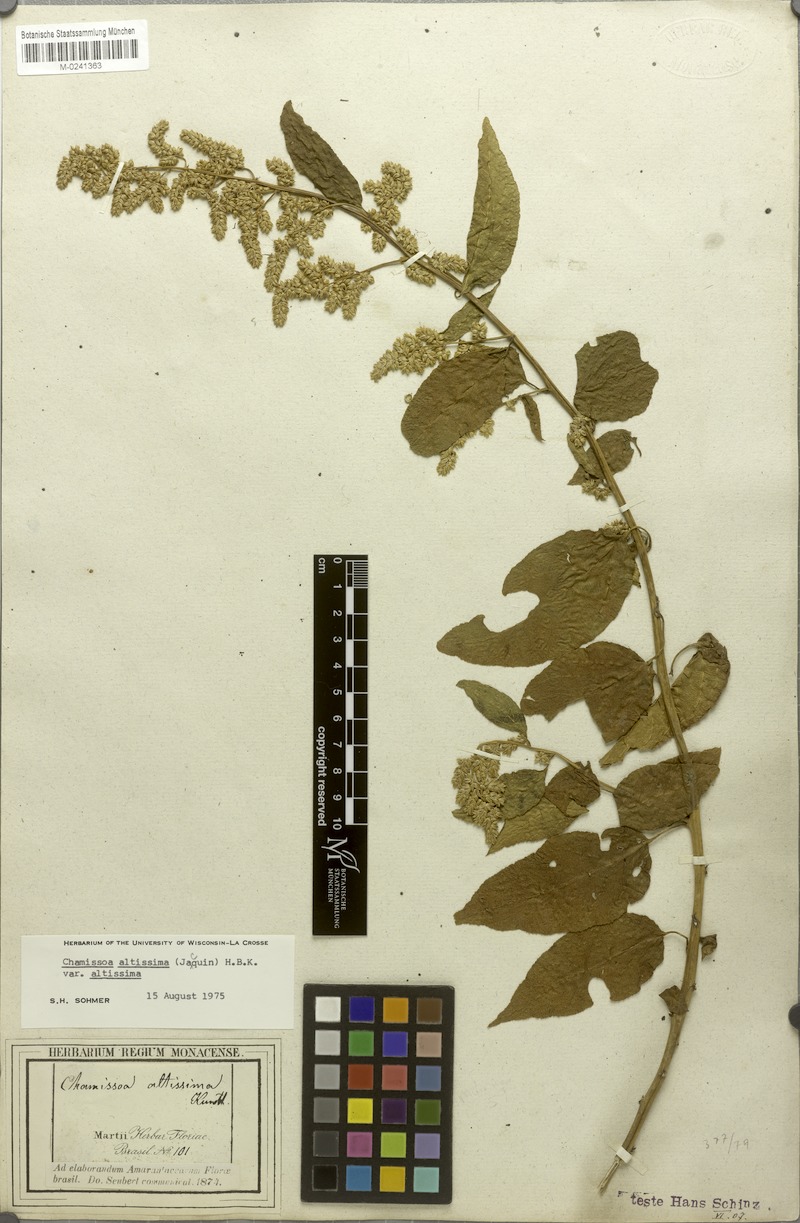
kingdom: Plantae
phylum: Tracheophyta
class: Magnoliopsida
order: Caryophyllales
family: Amaranthaceae
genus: Chamissoa
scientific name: Chamissoa altissima
